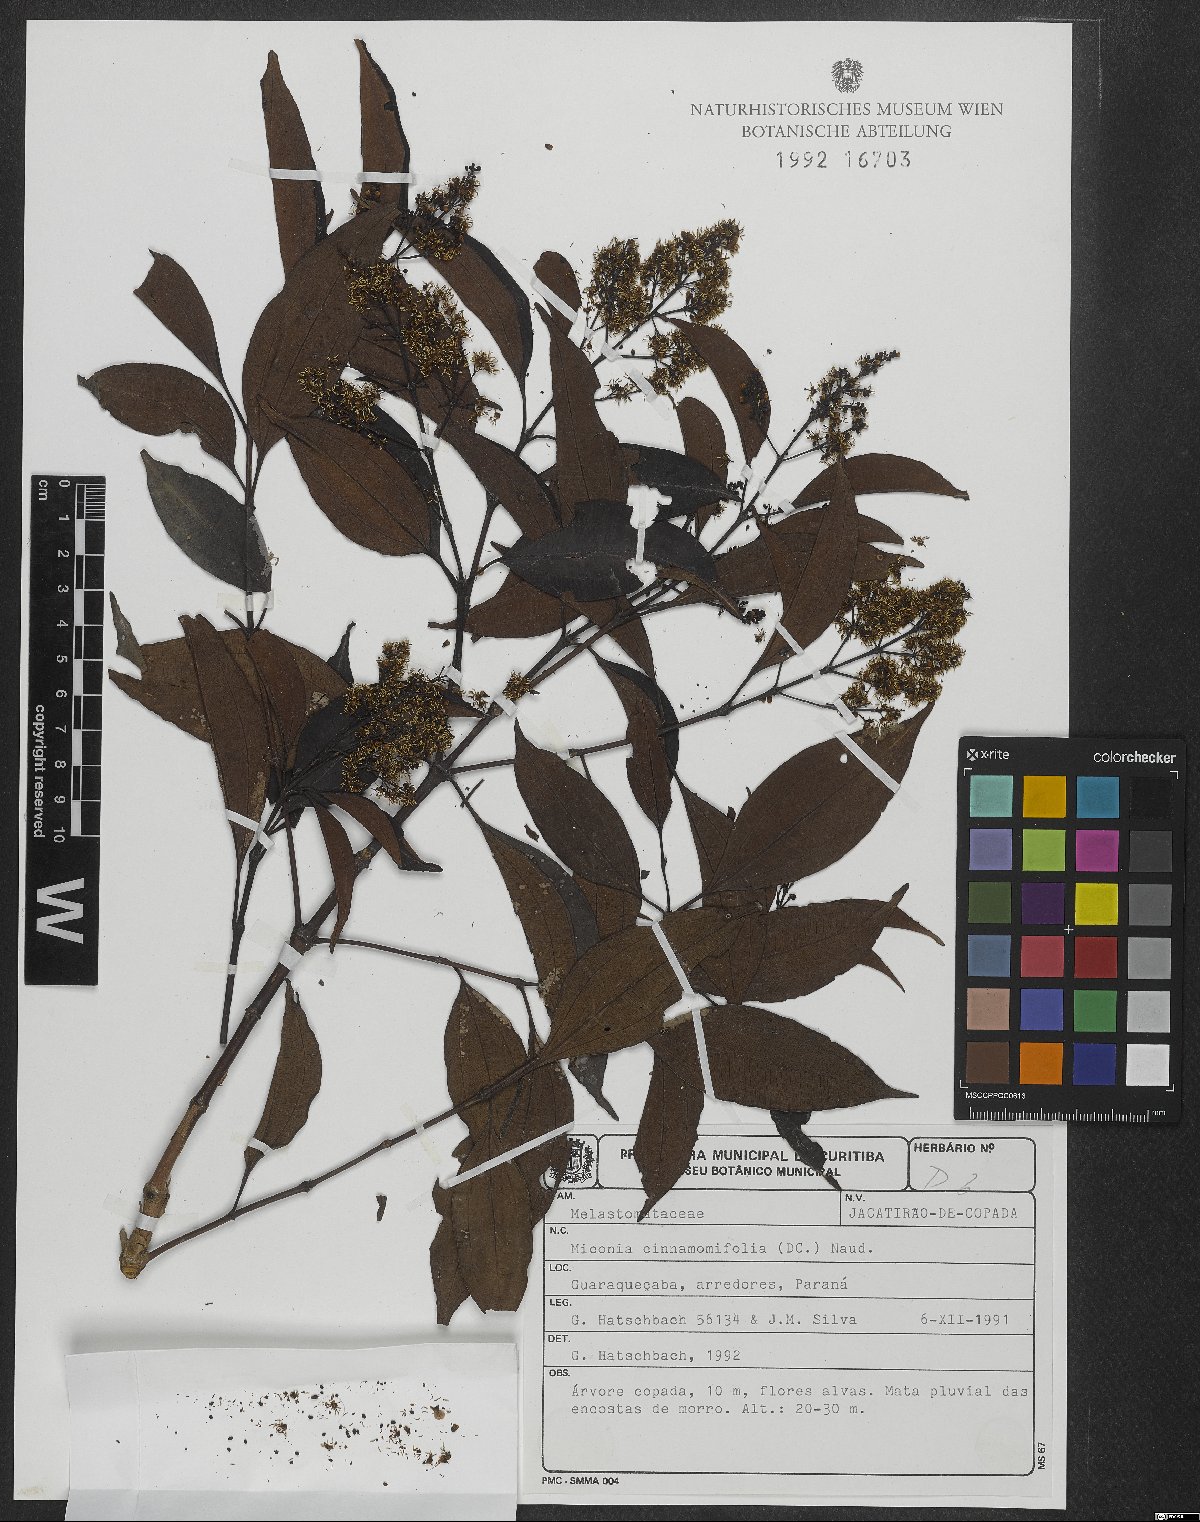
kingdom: Plantae
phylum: Tracheophyta
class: Magnoliopsida
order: Myrtales
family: Melastomataceae
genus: Miconia
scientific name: Miconia cinnamomifolia
